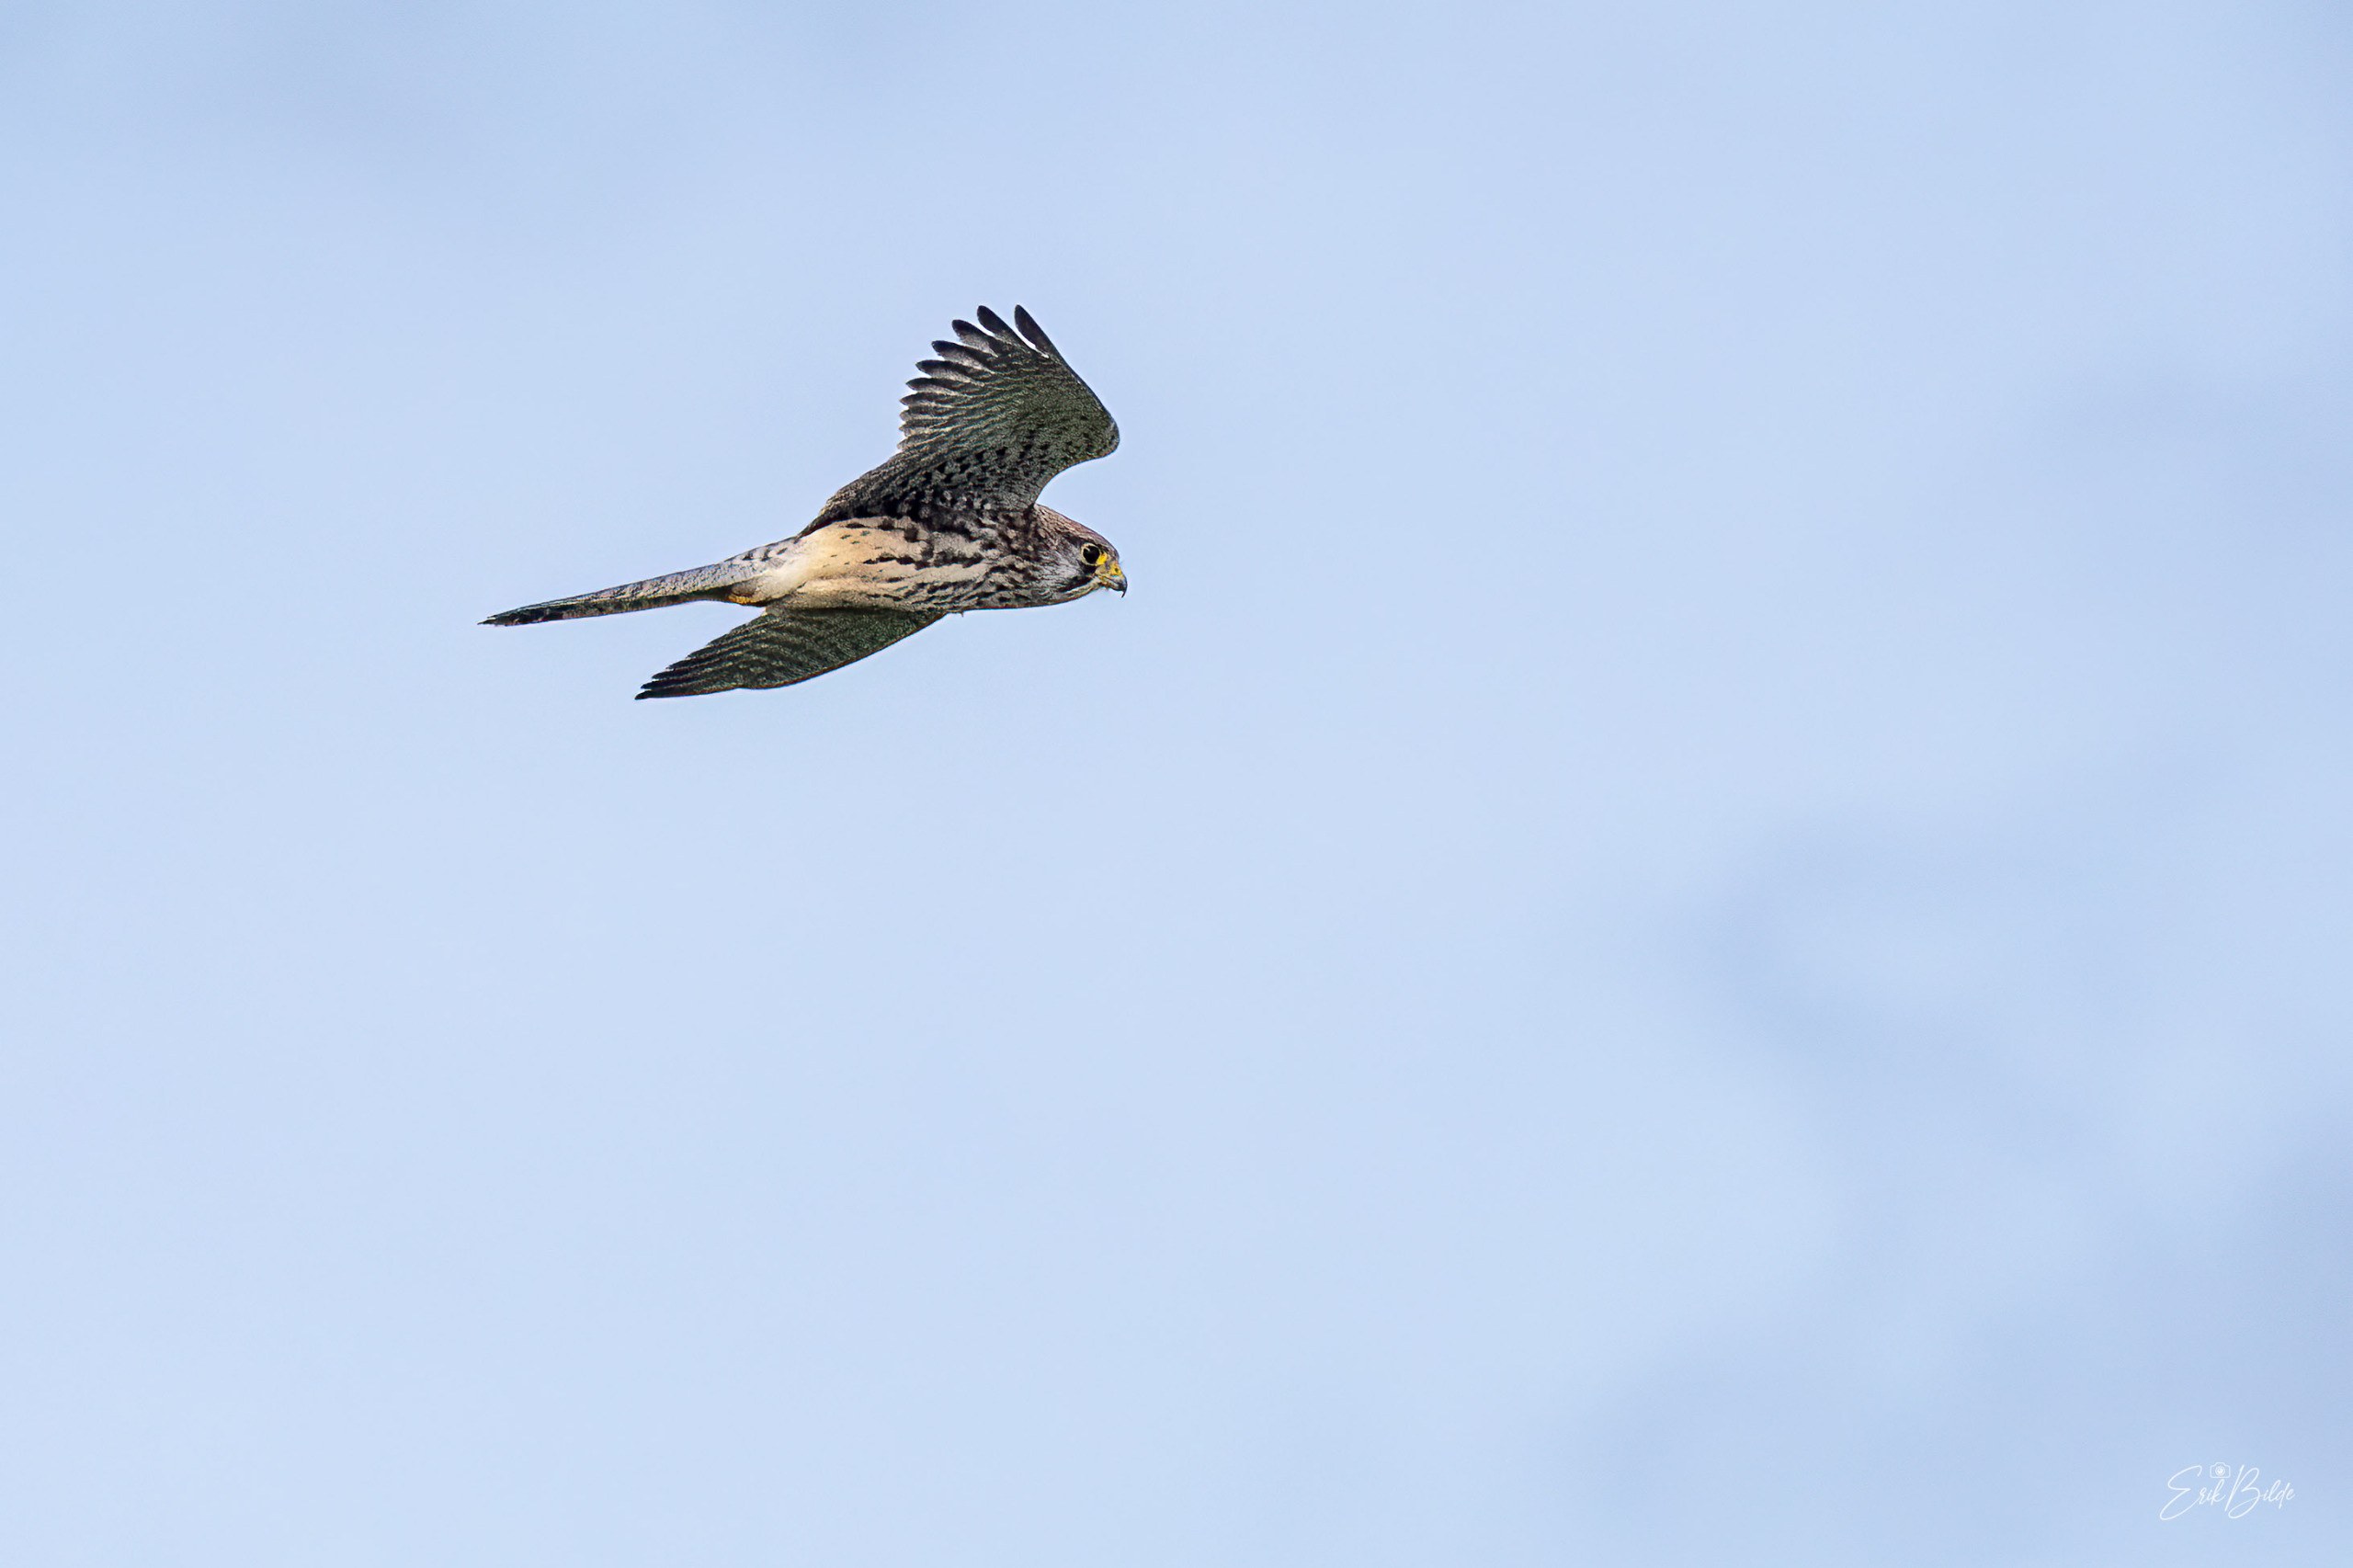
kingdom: Animalia
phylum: Chordata
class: Aves
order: Falconiformes
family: Falconidae
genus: Falco
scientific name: Falco tinnunculus
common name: Tårnfalk
